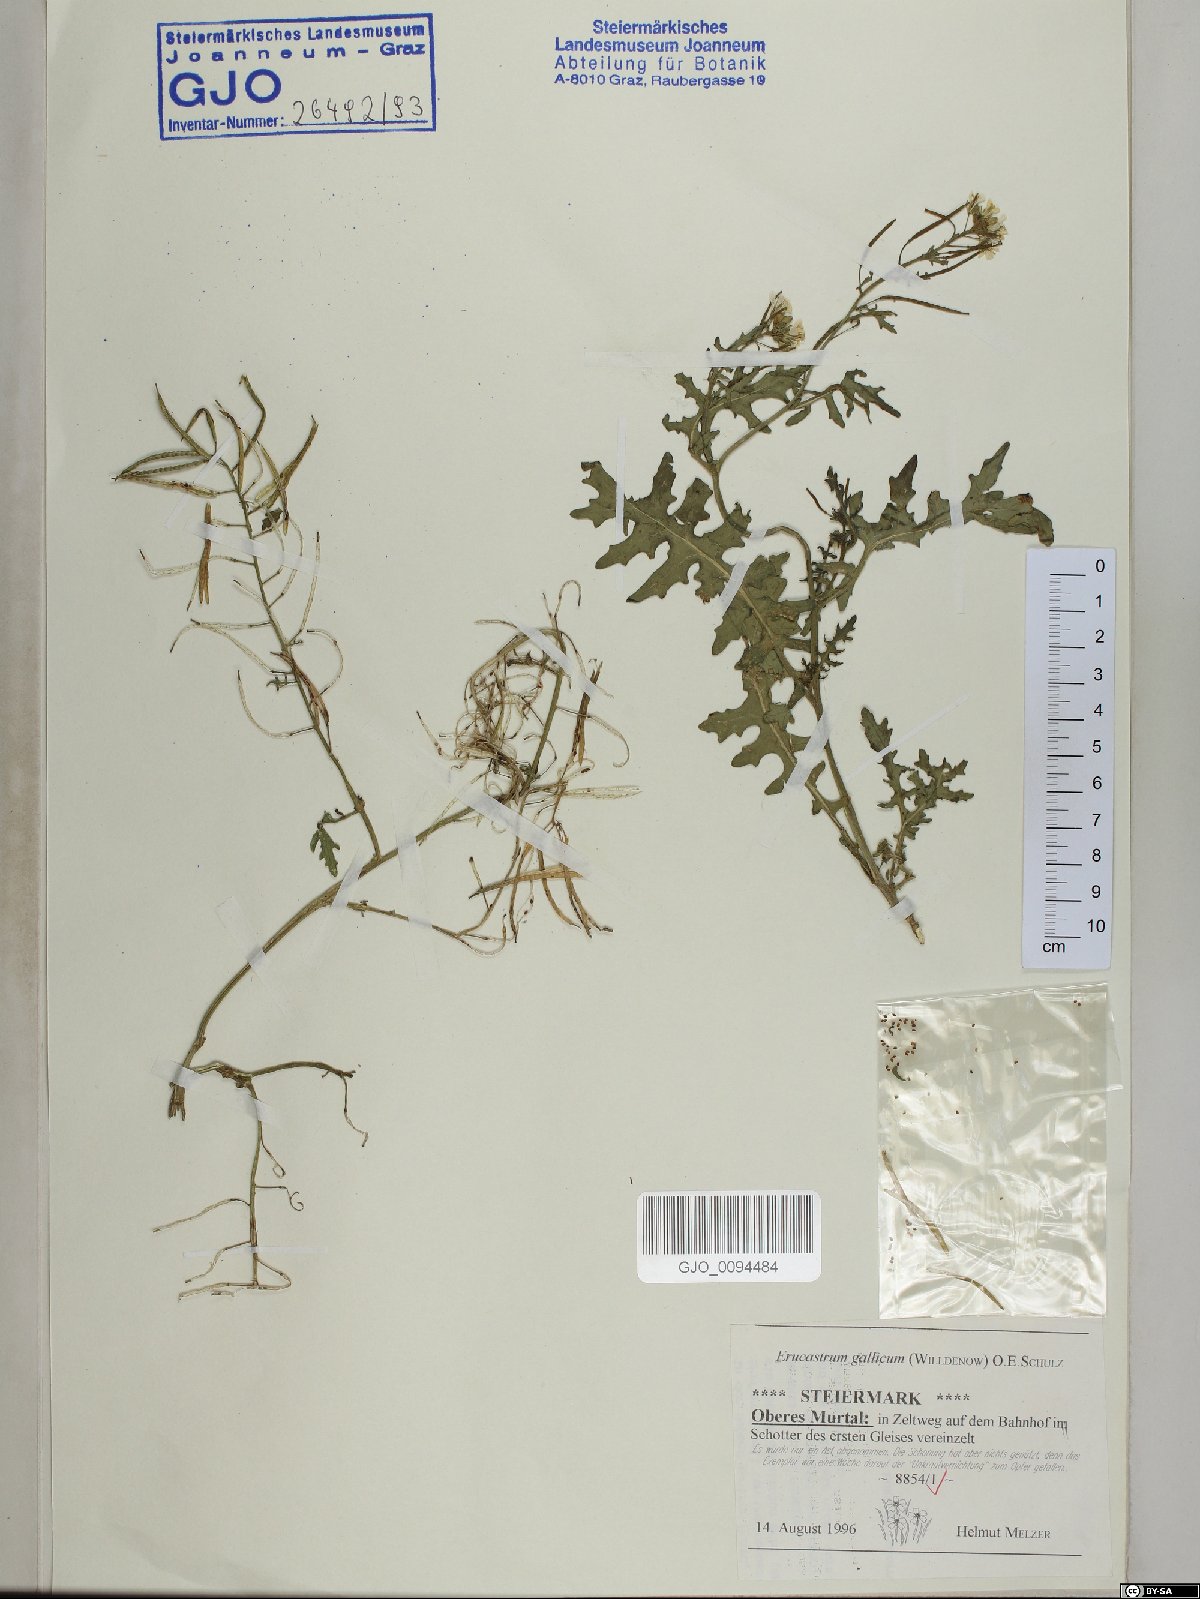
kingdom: Plantae
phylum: Tracheophyta
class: Magnoliopsida
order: Brassicales
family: Brassicaceae
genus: Erucastrum
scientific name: Erucastrum gallicum
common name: Hairy rocket
